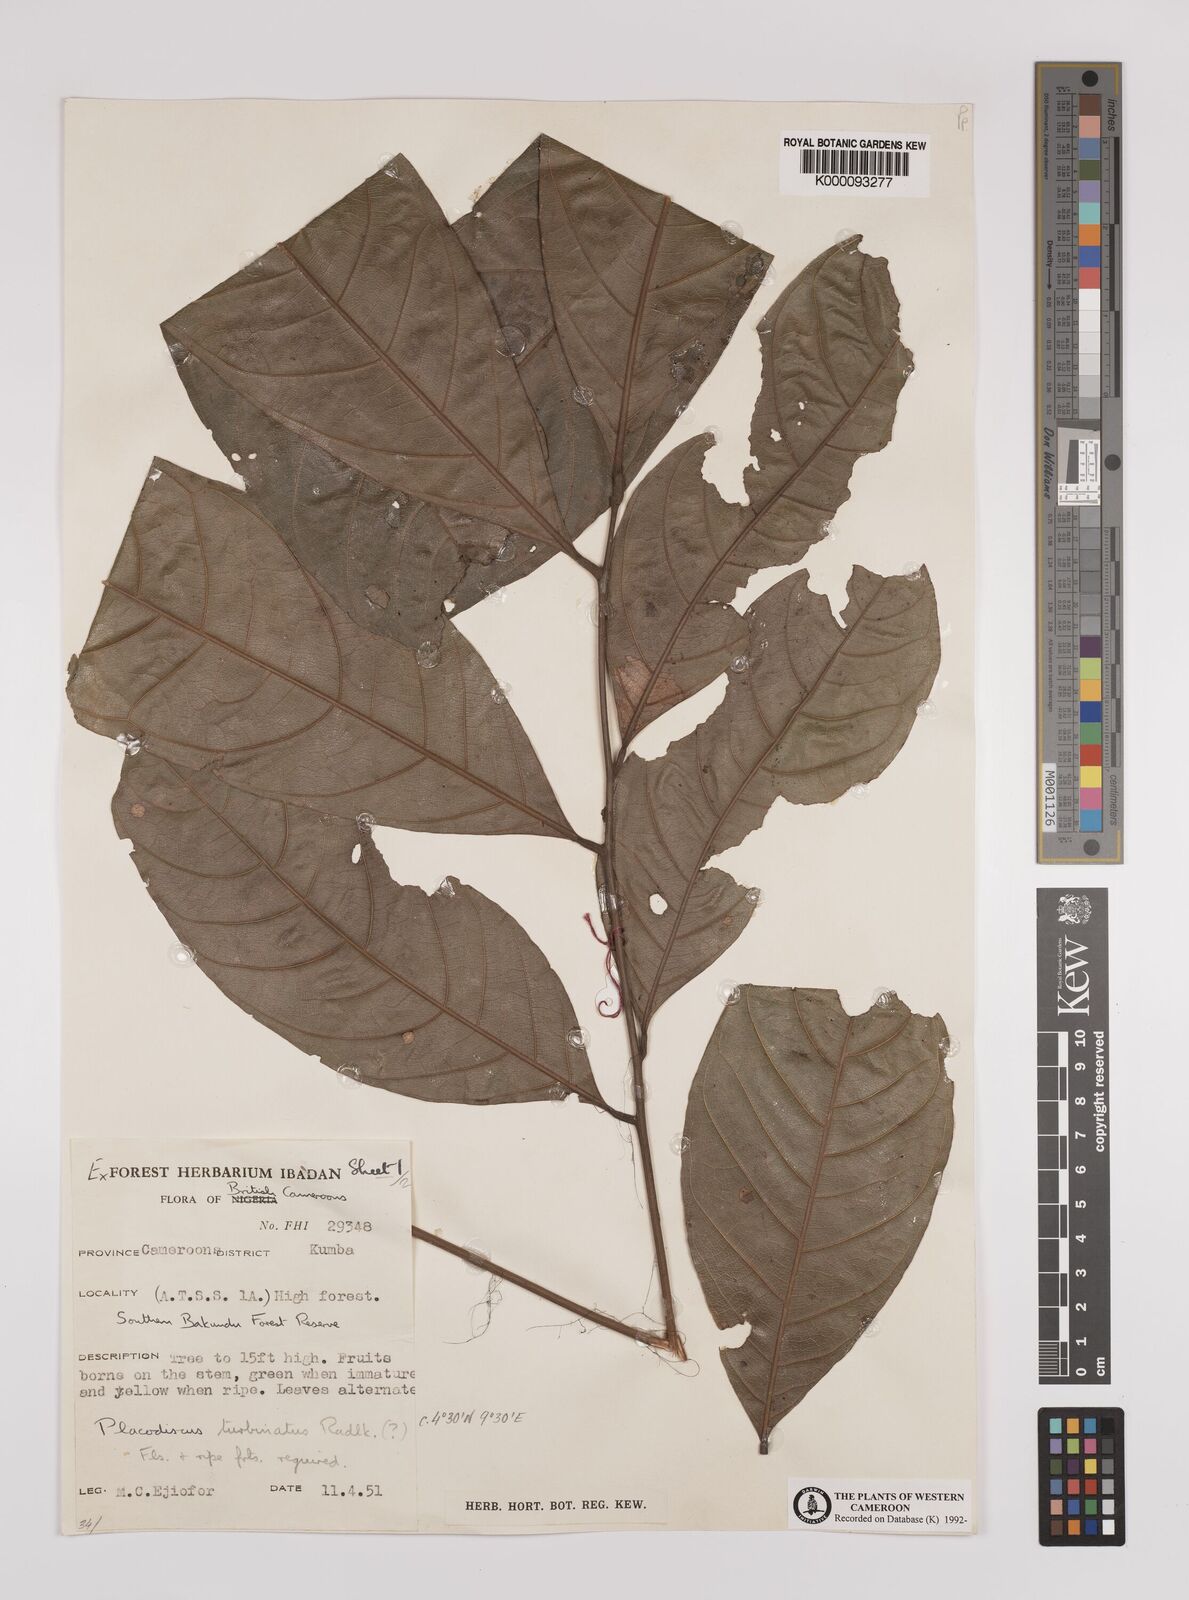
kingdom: Plantae
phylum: Tracheophyta
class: Magnoliopsida
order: Sapindales
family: Sapindaceae
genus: Placodiscus
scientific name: Placodiscus turbinatus
